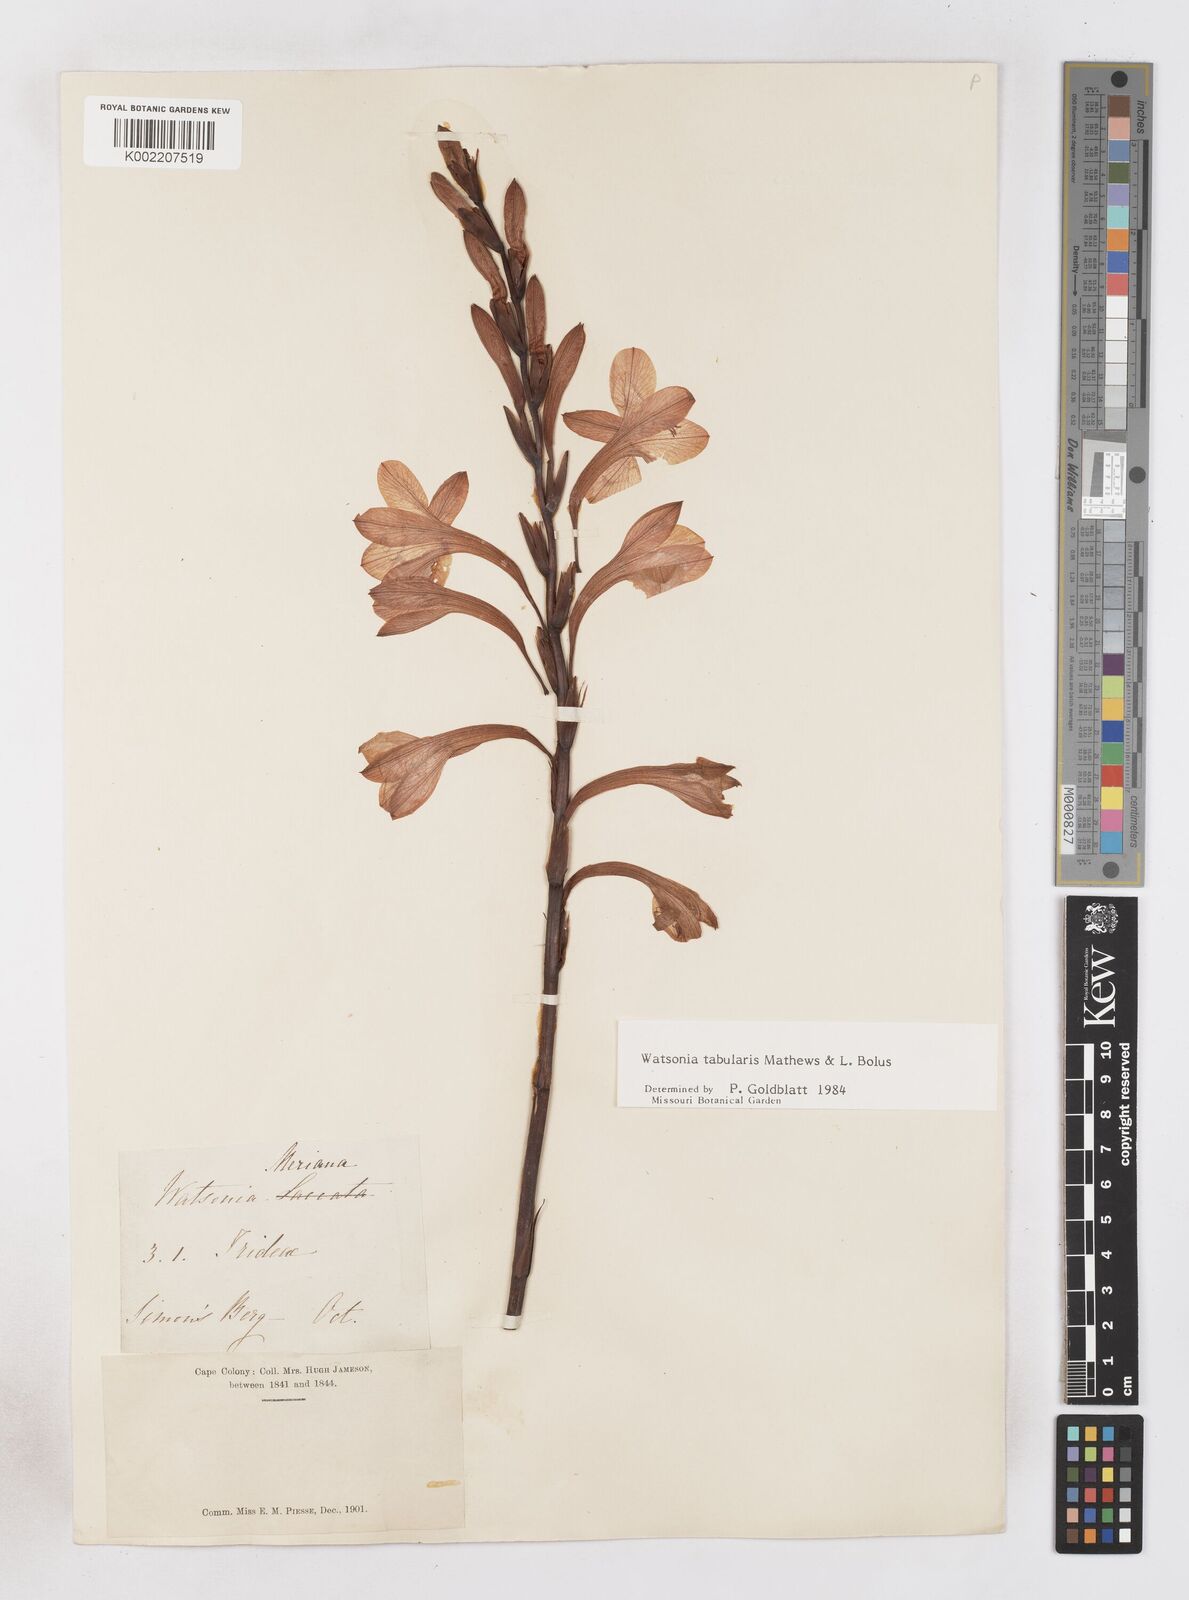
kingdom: Plantae
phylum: Tracheophyta
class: Liliopsida
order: Asparagales
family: Iridaceae
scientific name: Iridaceae
